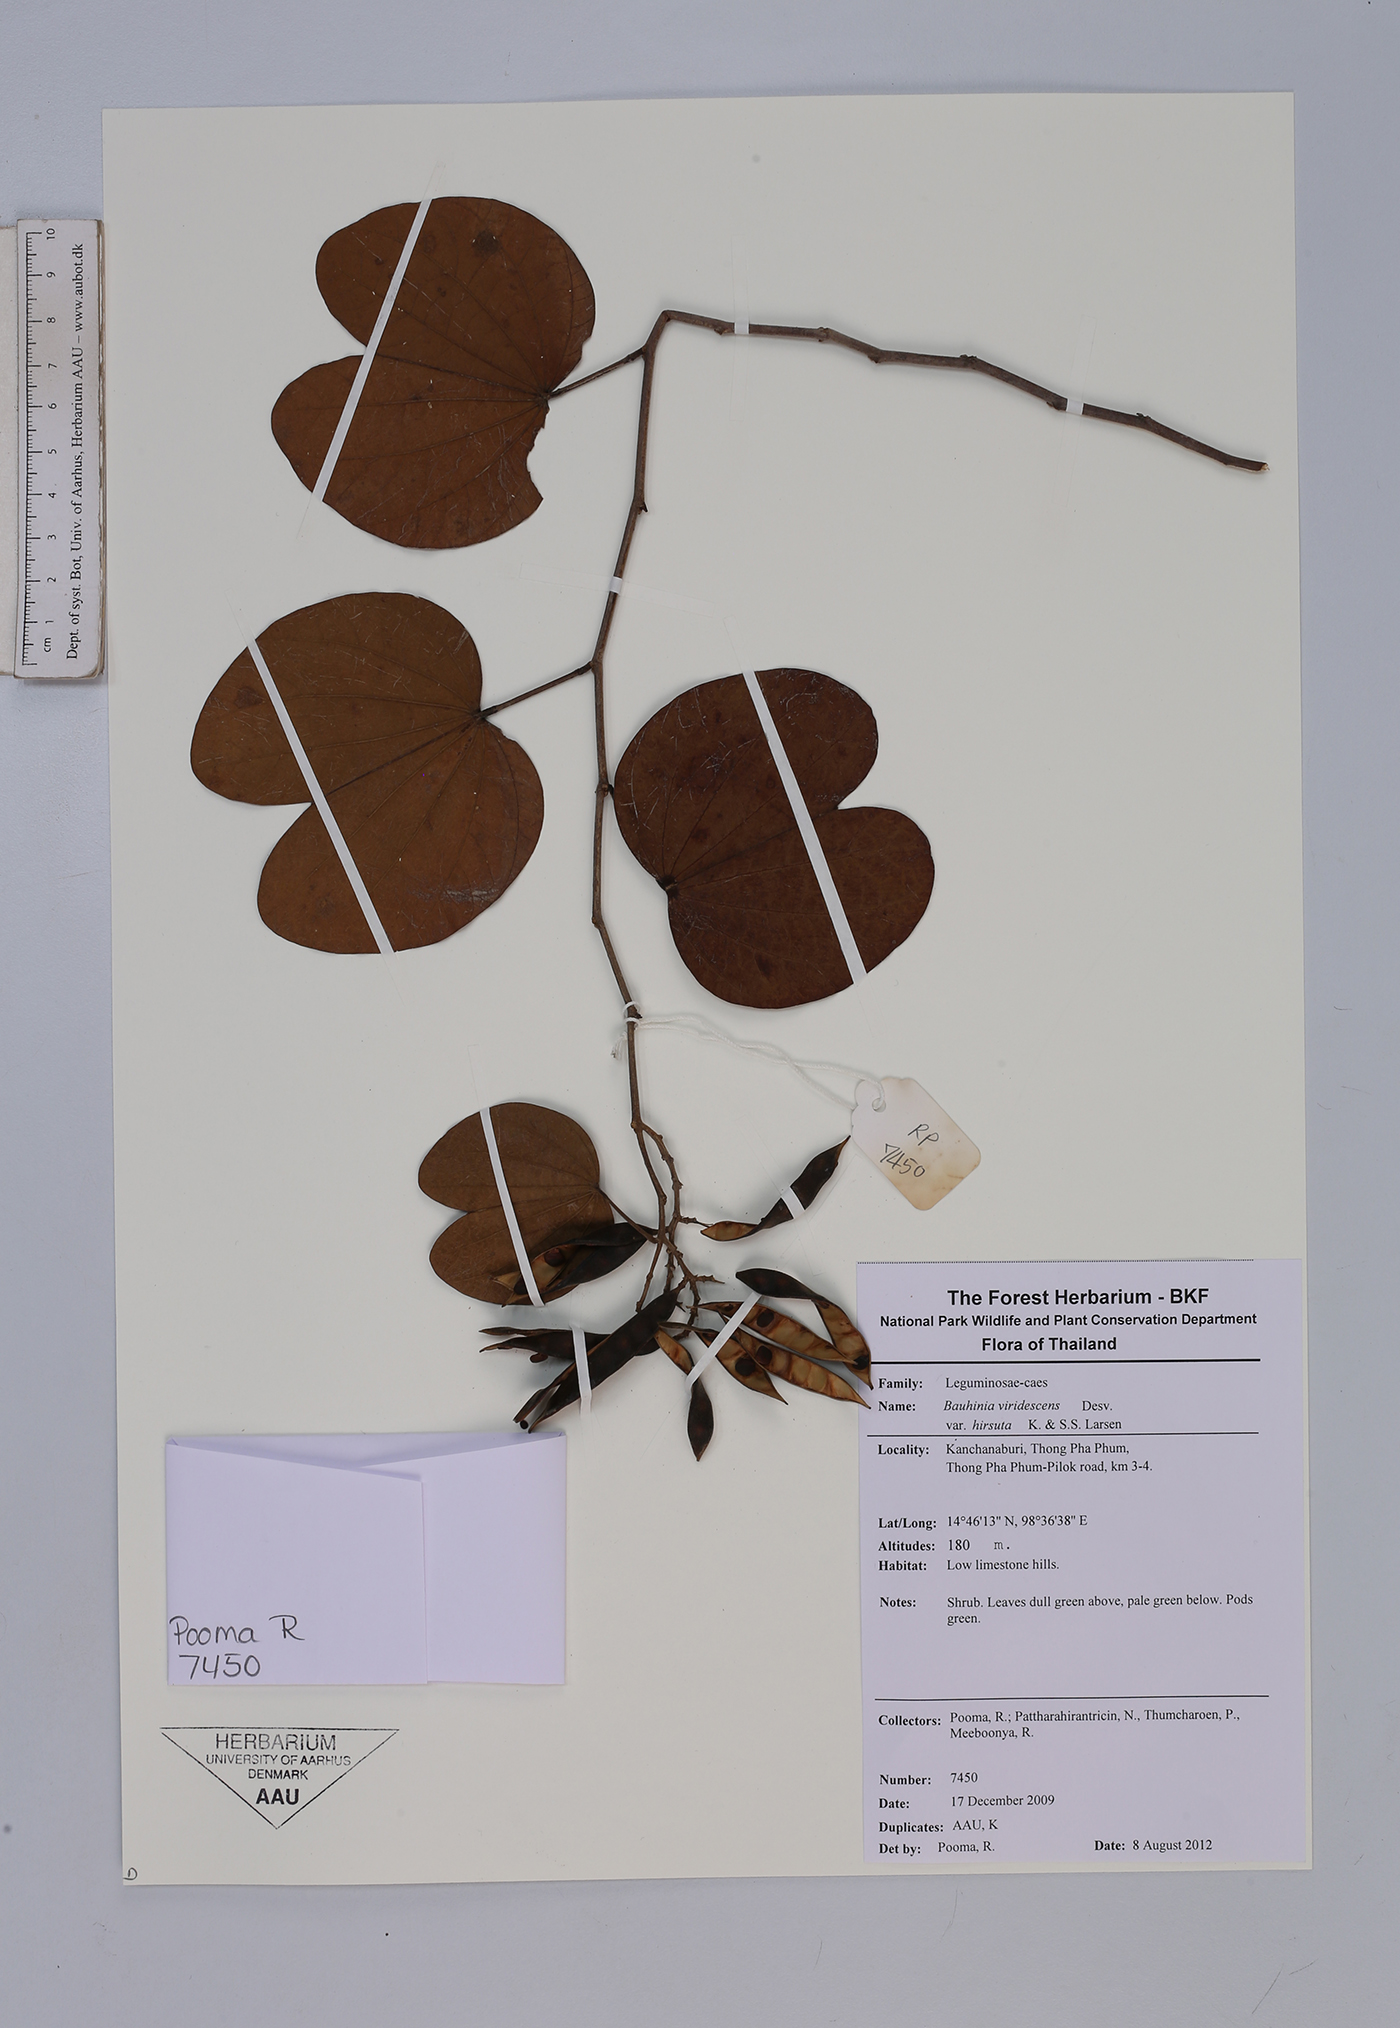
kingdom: Plantae
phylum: Tracheophyta
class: Magnoliopsida
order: Fabales
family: Fabaceae
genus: Bauhinia
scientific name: Bauhinia viridescens
